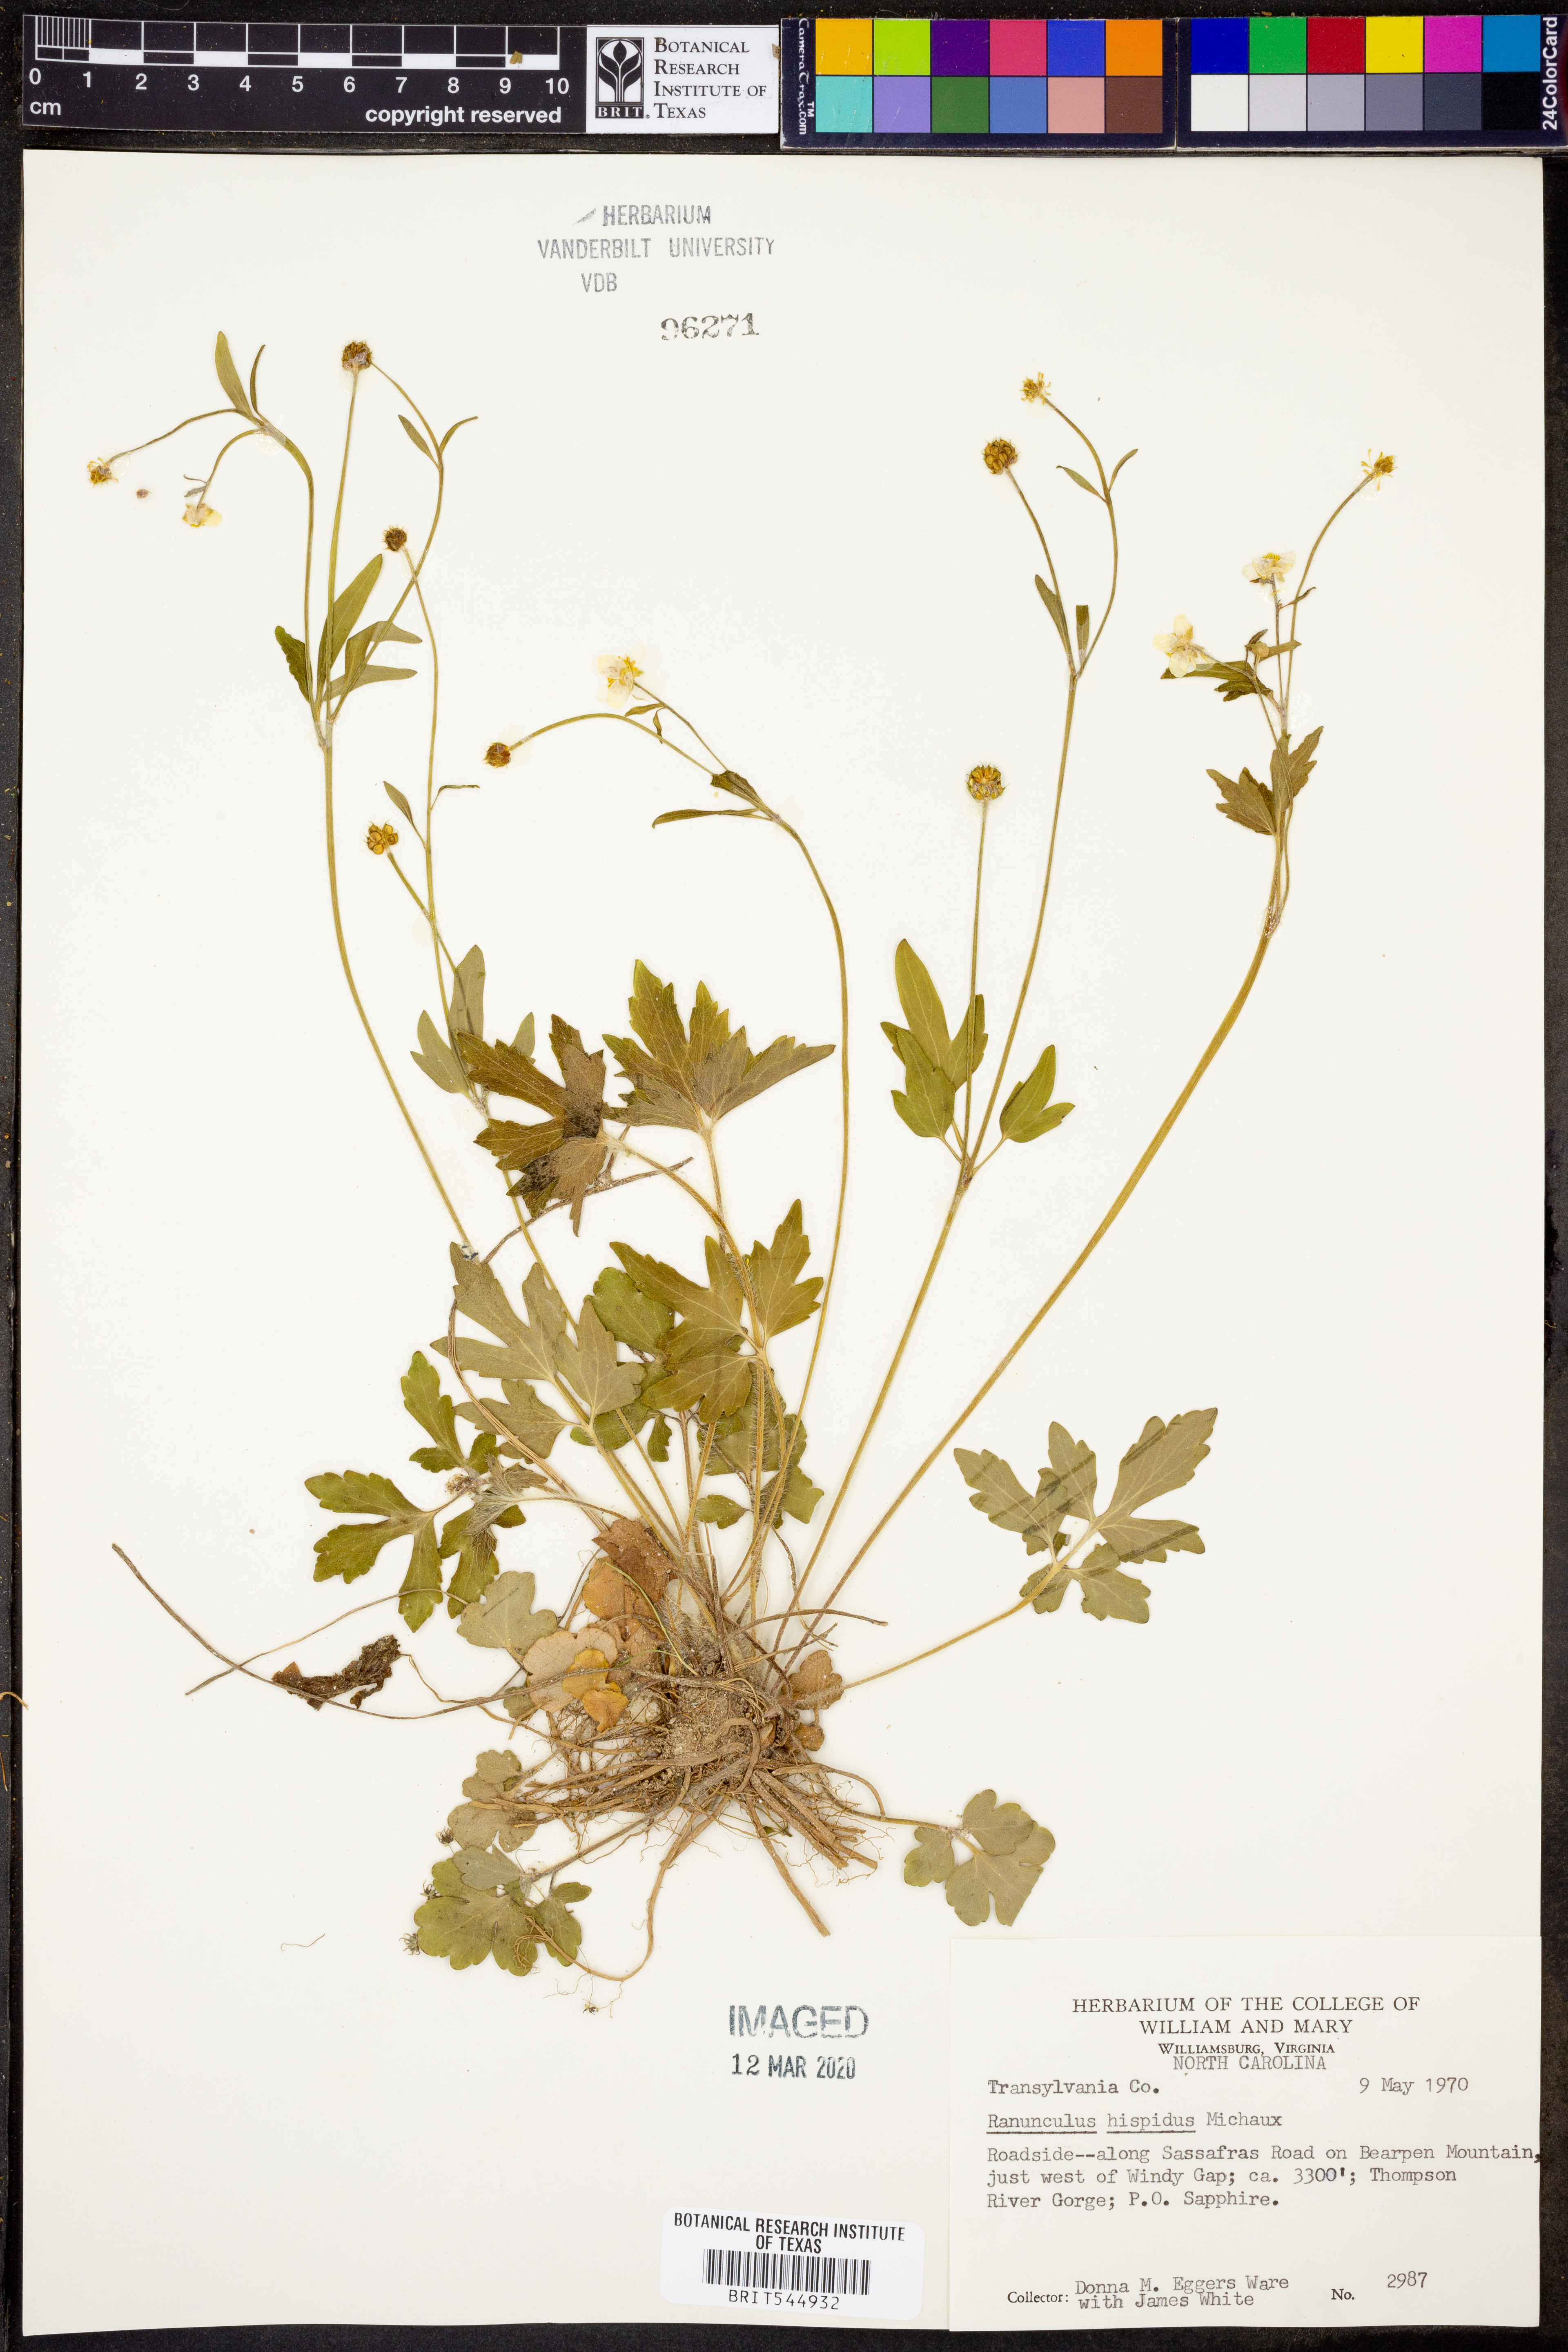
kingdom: Plantae
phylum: Tracheophyta
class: Magnoliopsida
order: Ranunculales
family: Ranunculaceae
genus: Ranunculus
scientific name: Ranunculus hispidus
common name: Bristly buttercup
